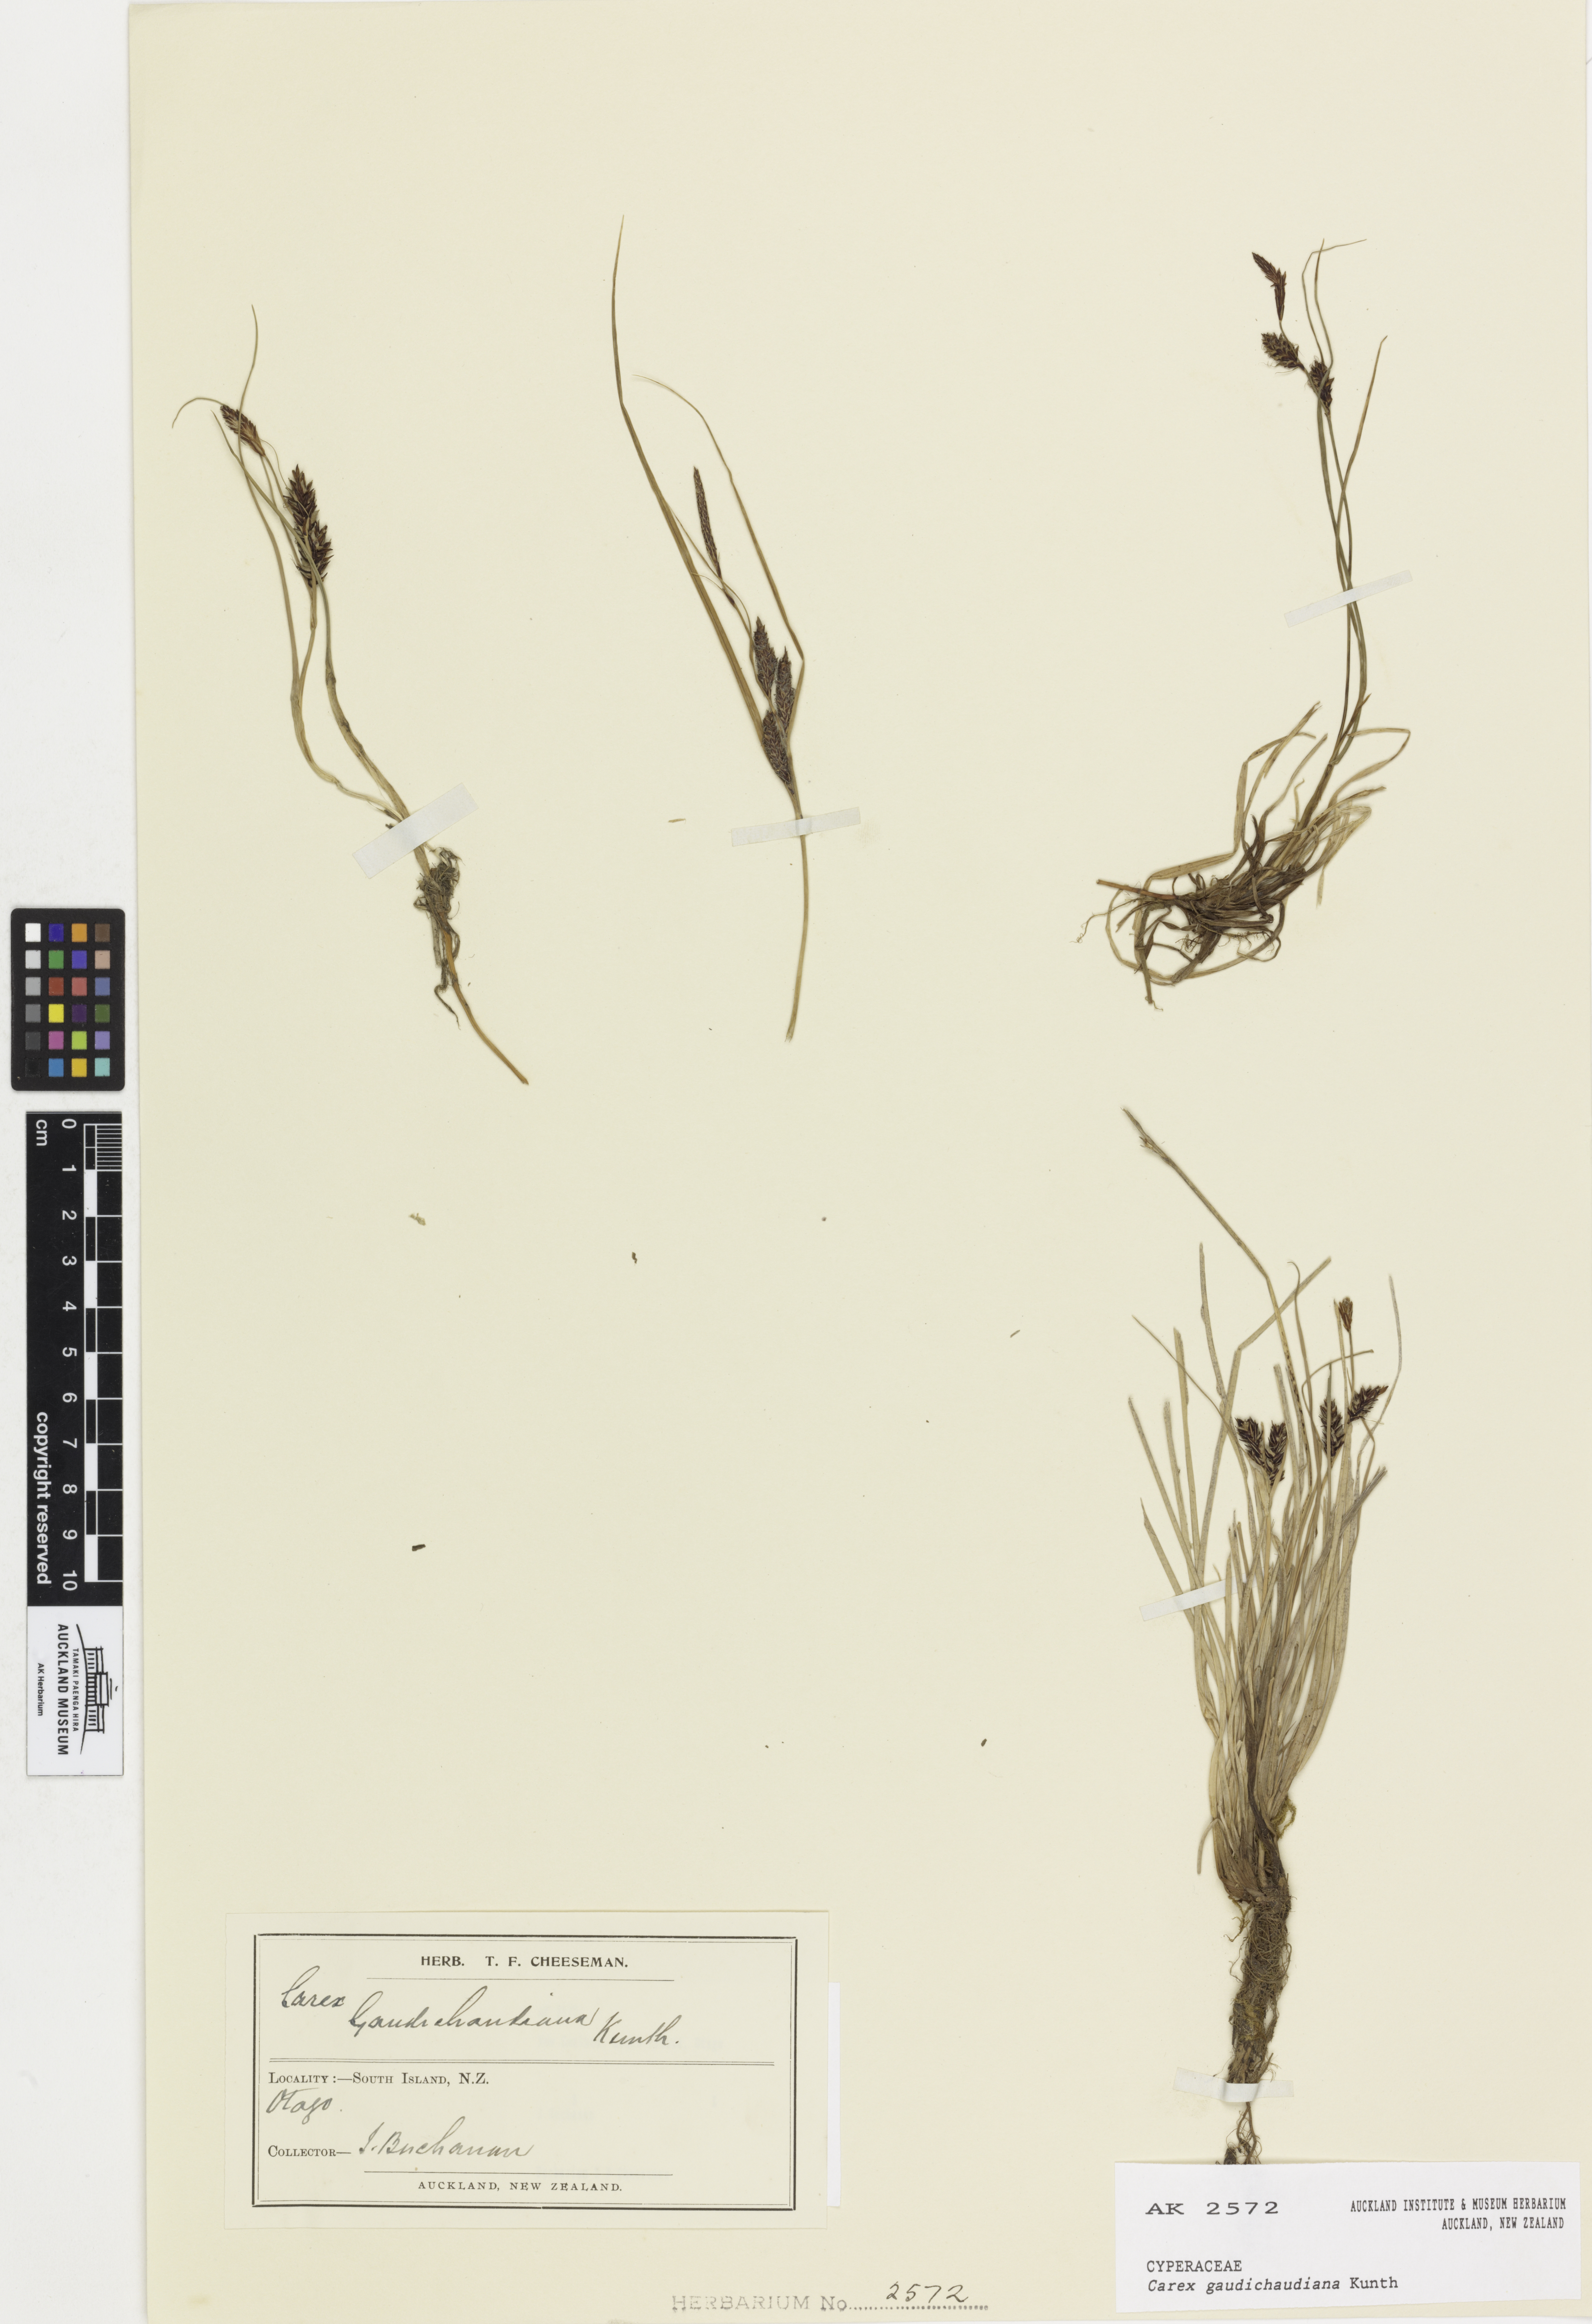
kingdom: Plantae
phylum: Tracheophyta
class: Liliopsida
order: Poales
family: Cyperaceae
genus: Carex
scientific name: Carex gaudichaudiana
